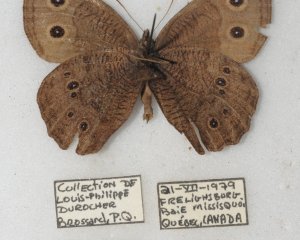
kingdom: Animalia
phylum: Arthropoda
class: Insecta
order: Lepidoptera
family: Nymphalidae
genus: Cercyonis
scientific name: Cercyonis pegala
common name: Common Wood-Nymph
